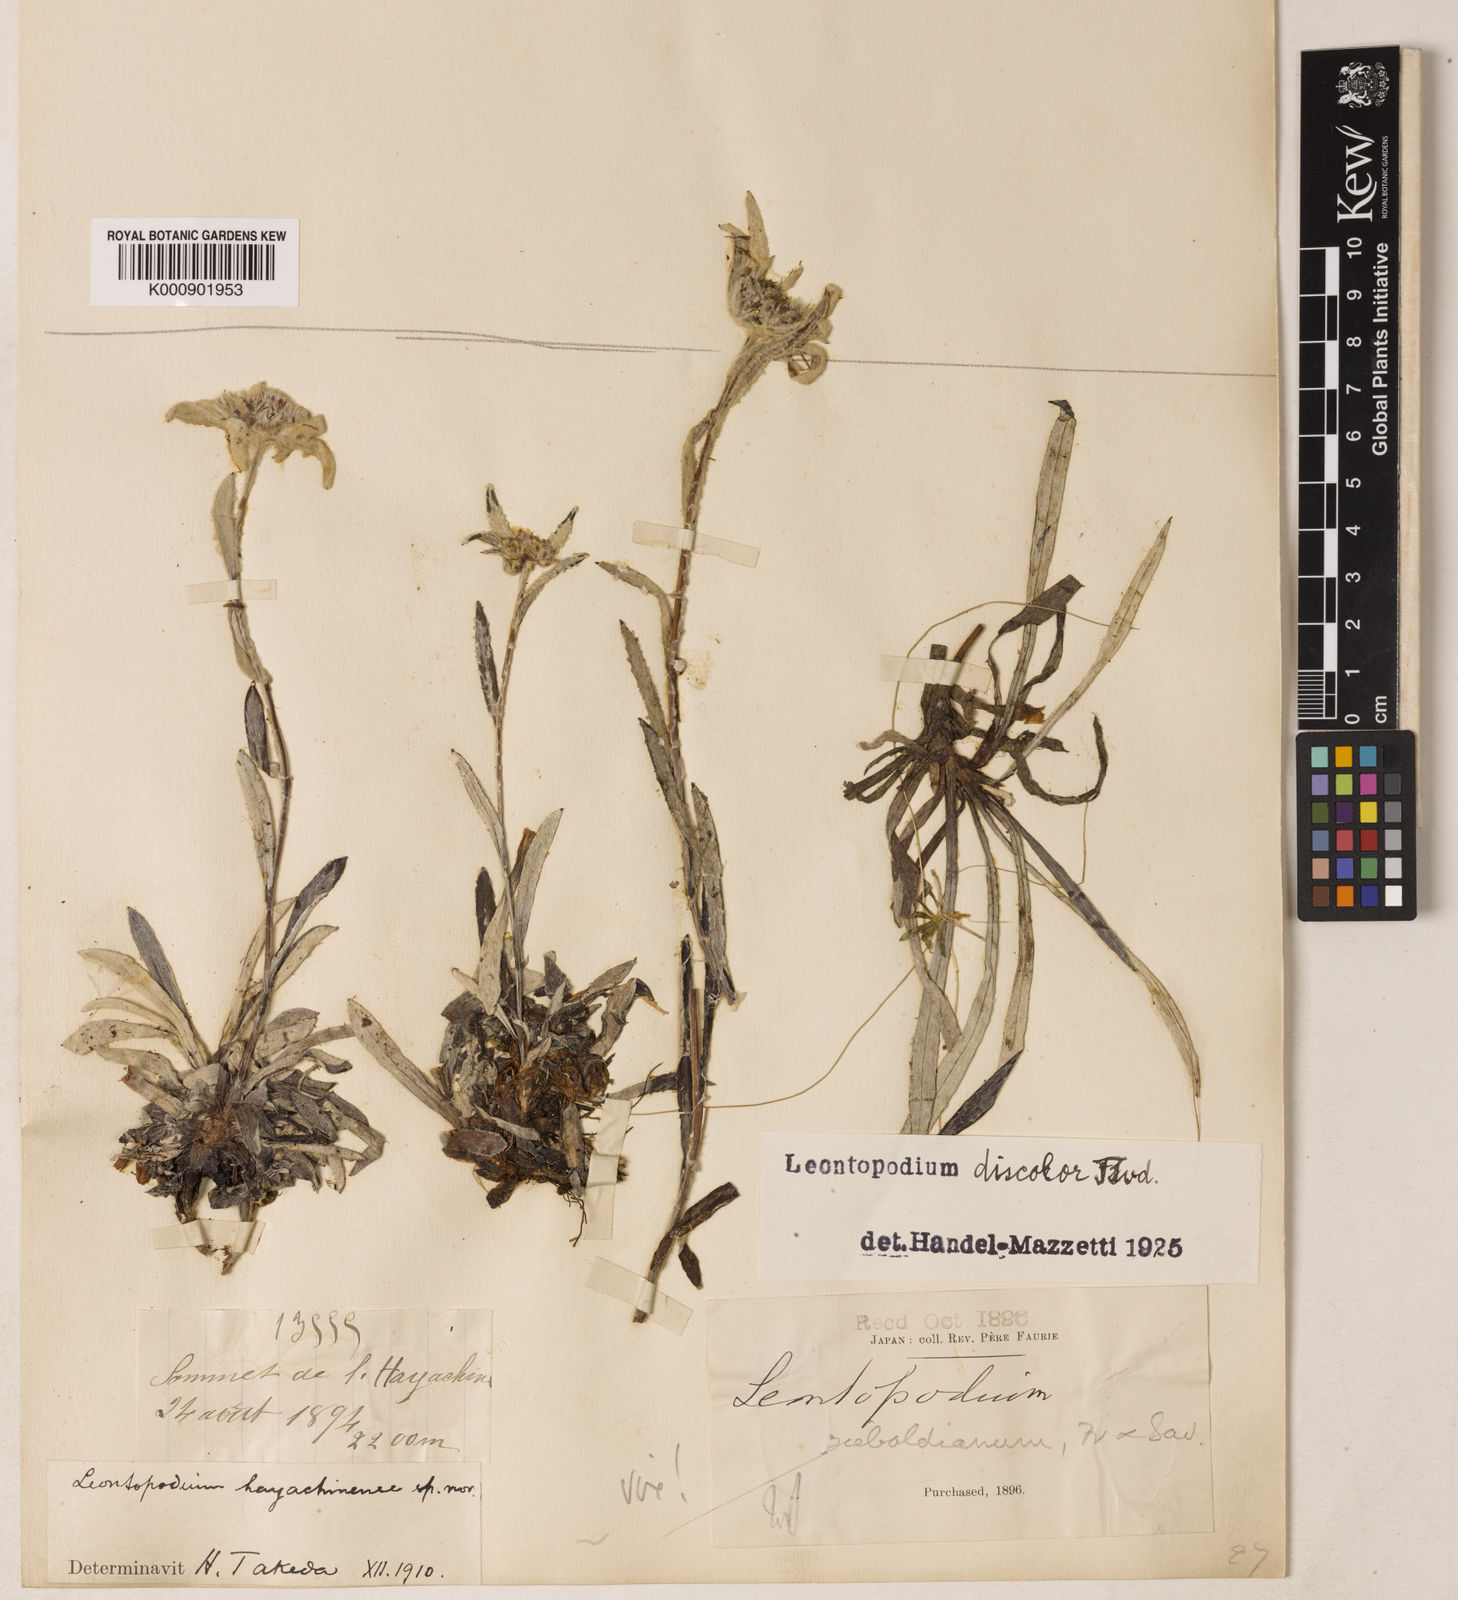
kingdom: Plantae
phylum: Tracheophyta
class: Magnoliopsida
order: Asterales
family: Asteraceae
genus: Leontopodium
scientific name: Leontopodium discolor
